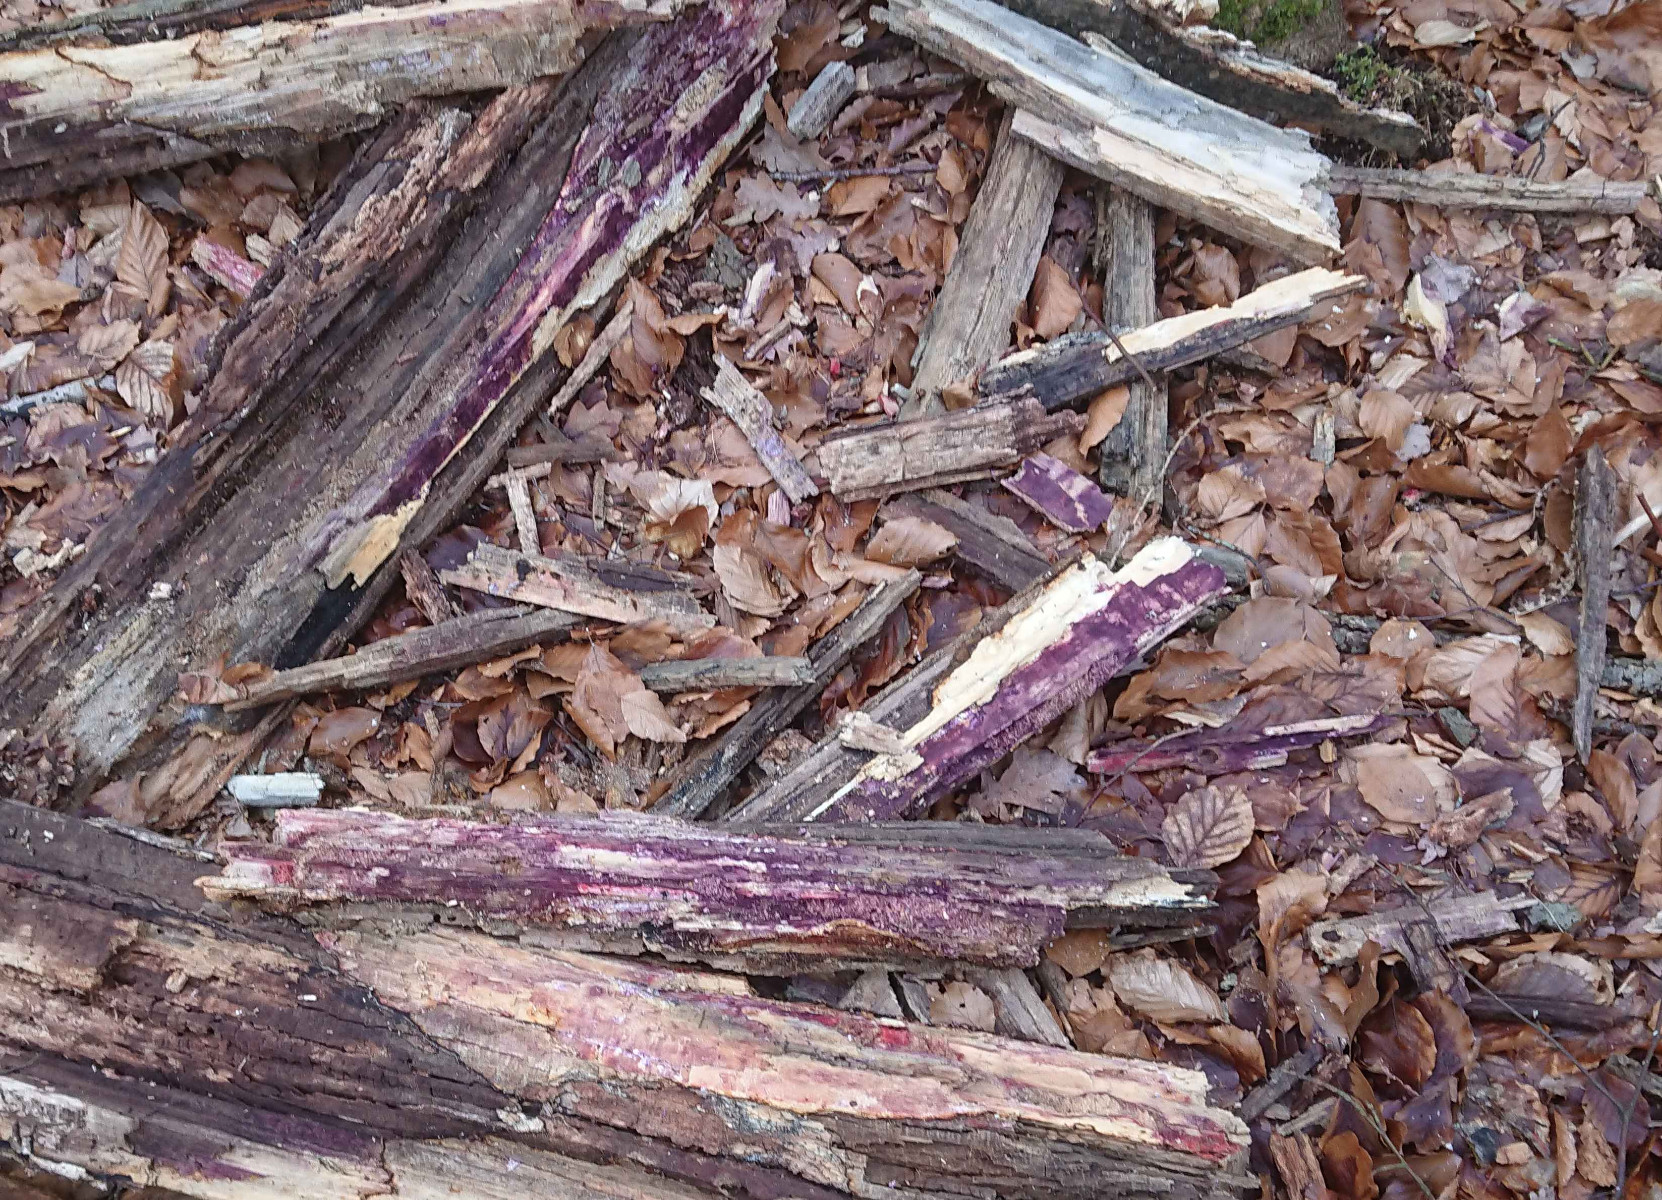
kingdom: Fungi
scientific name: Fungi
